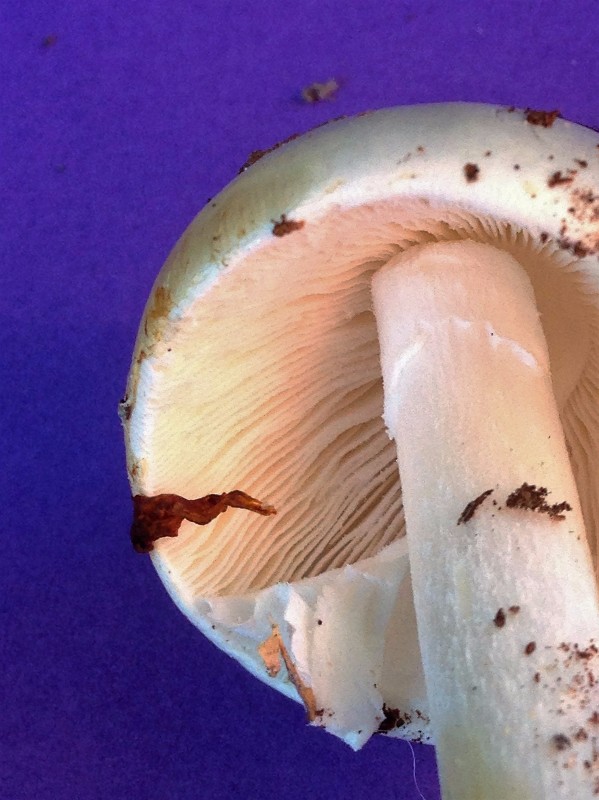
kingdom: Fungi
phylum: Basidiomycota
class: Agaricomycetes
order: Agaricales
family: Amanitaceae
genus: Amanita
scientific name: Amanita virosa
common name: snehvid fluesvamp
